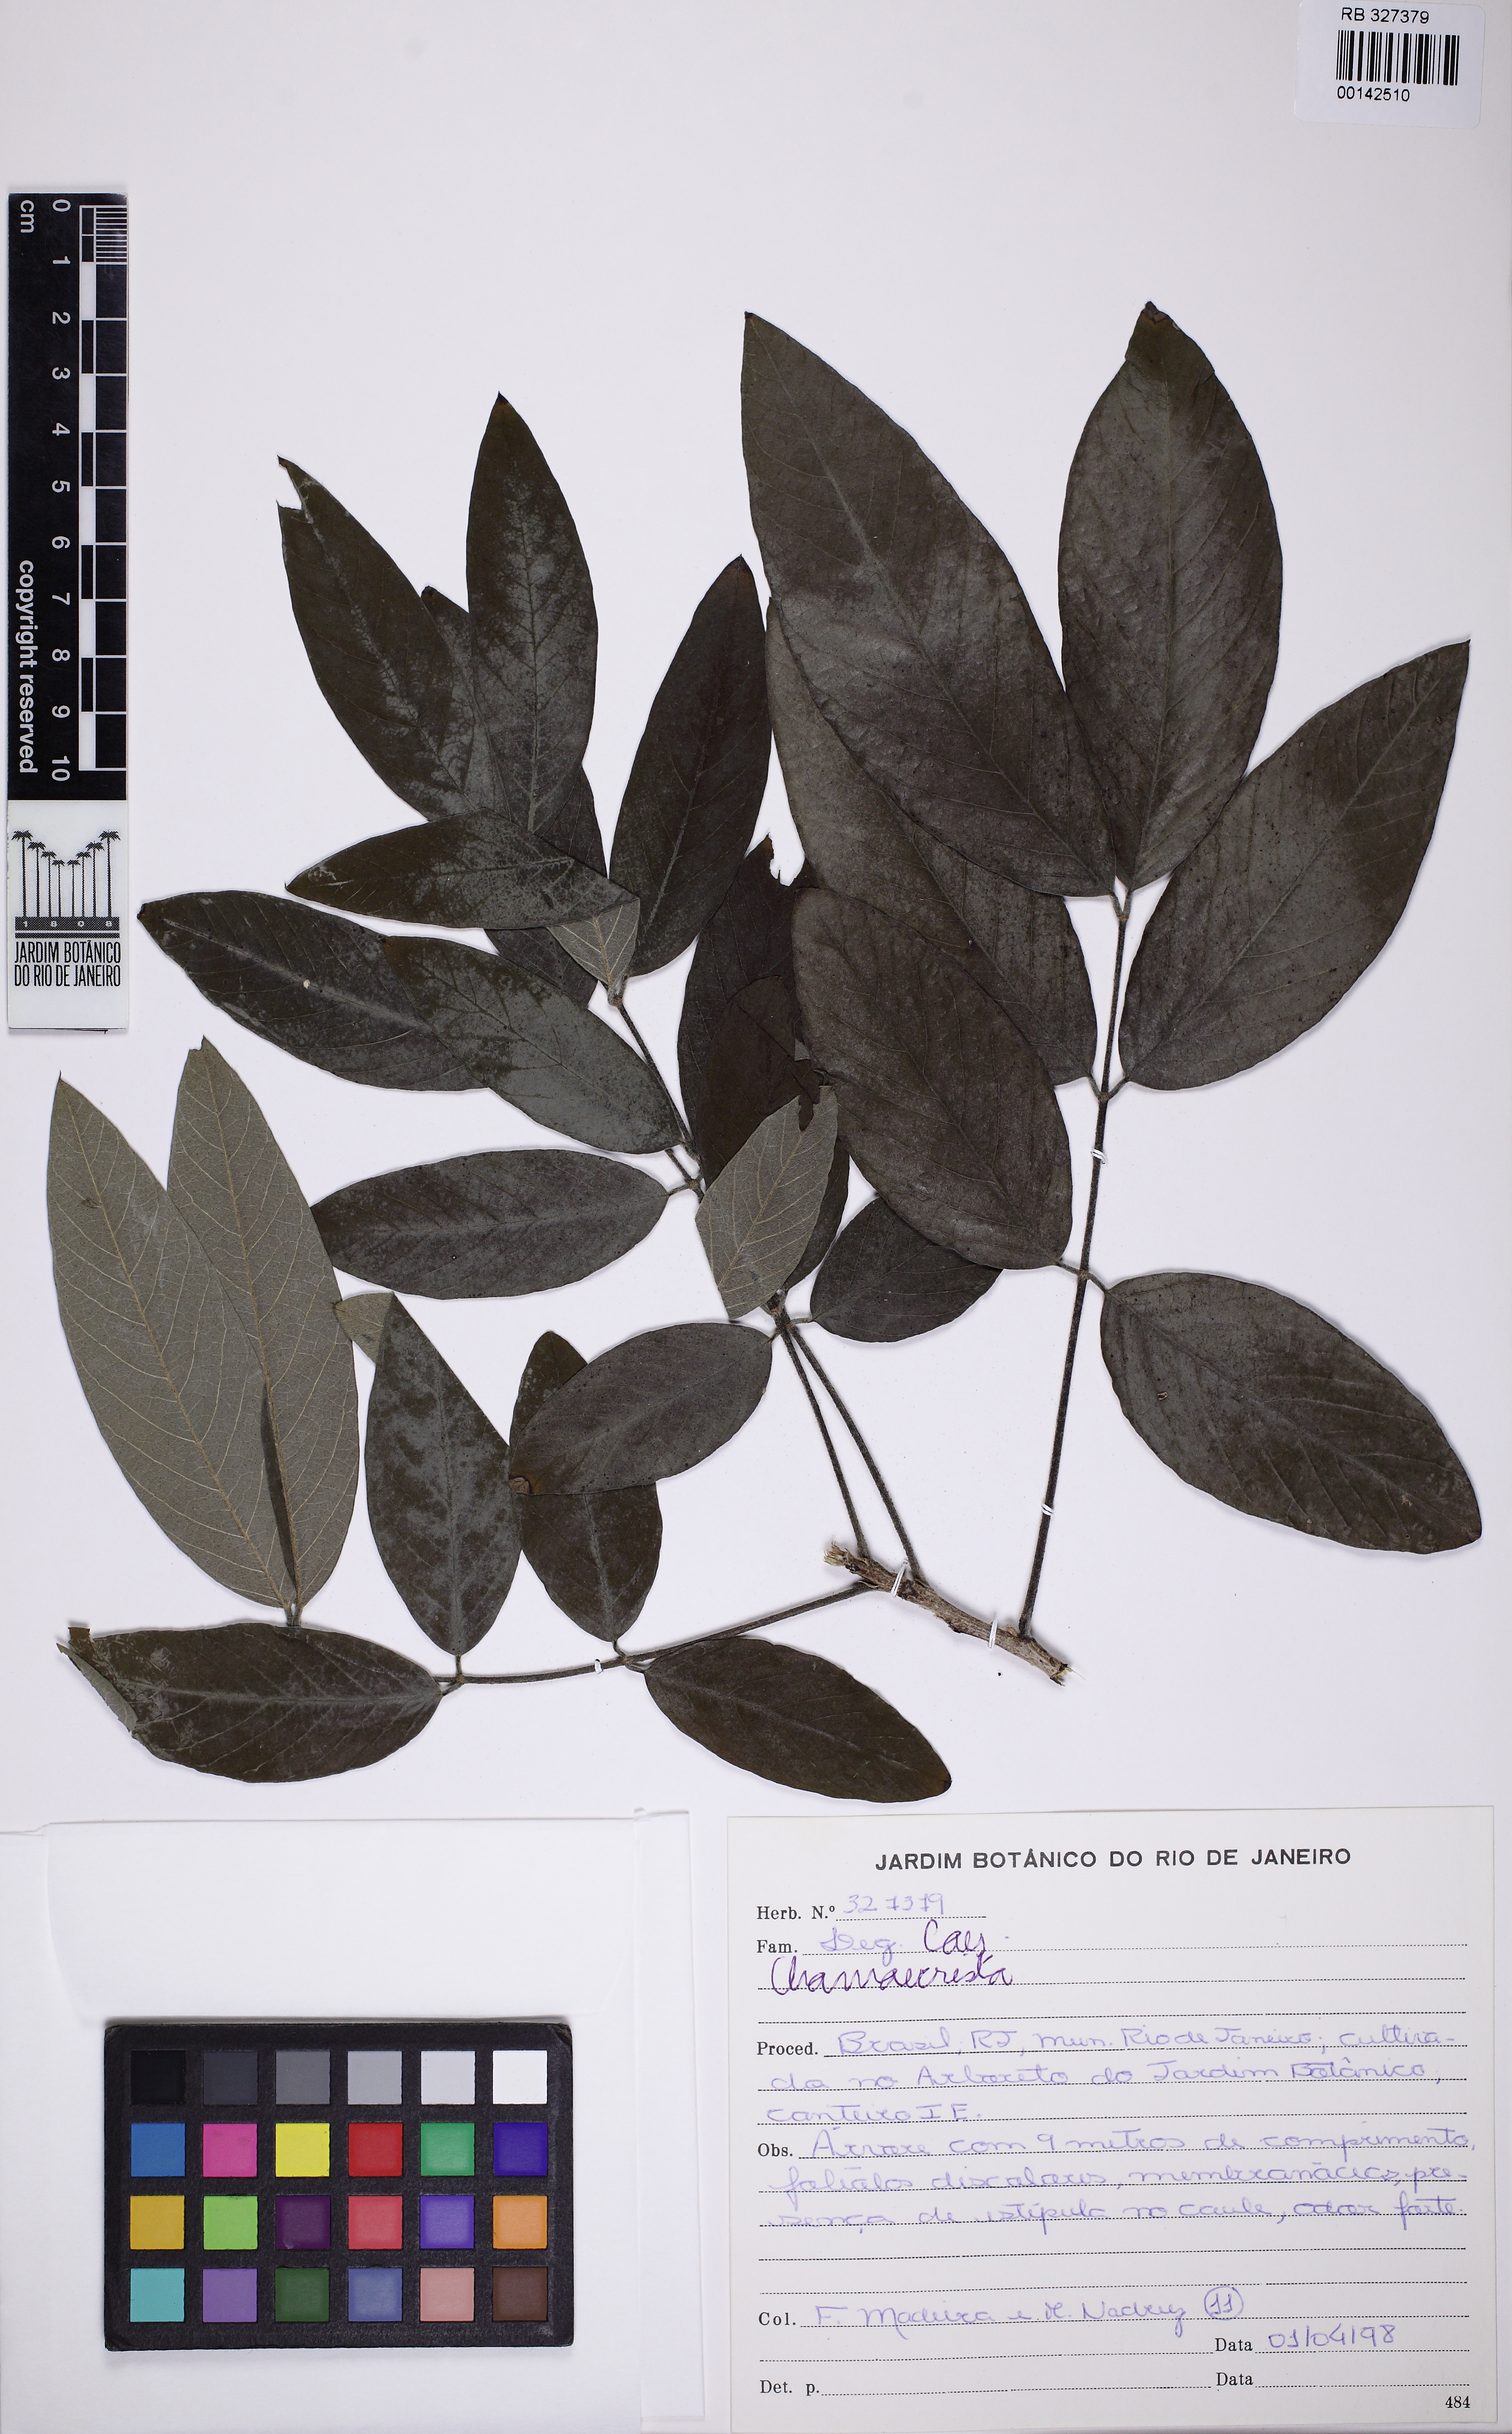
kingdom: Plantae
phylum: Tracheophyta
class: Magnoliopsida
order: Fabales
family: Fabaceae
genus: Chamaecrista
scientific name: Chamaecrista
